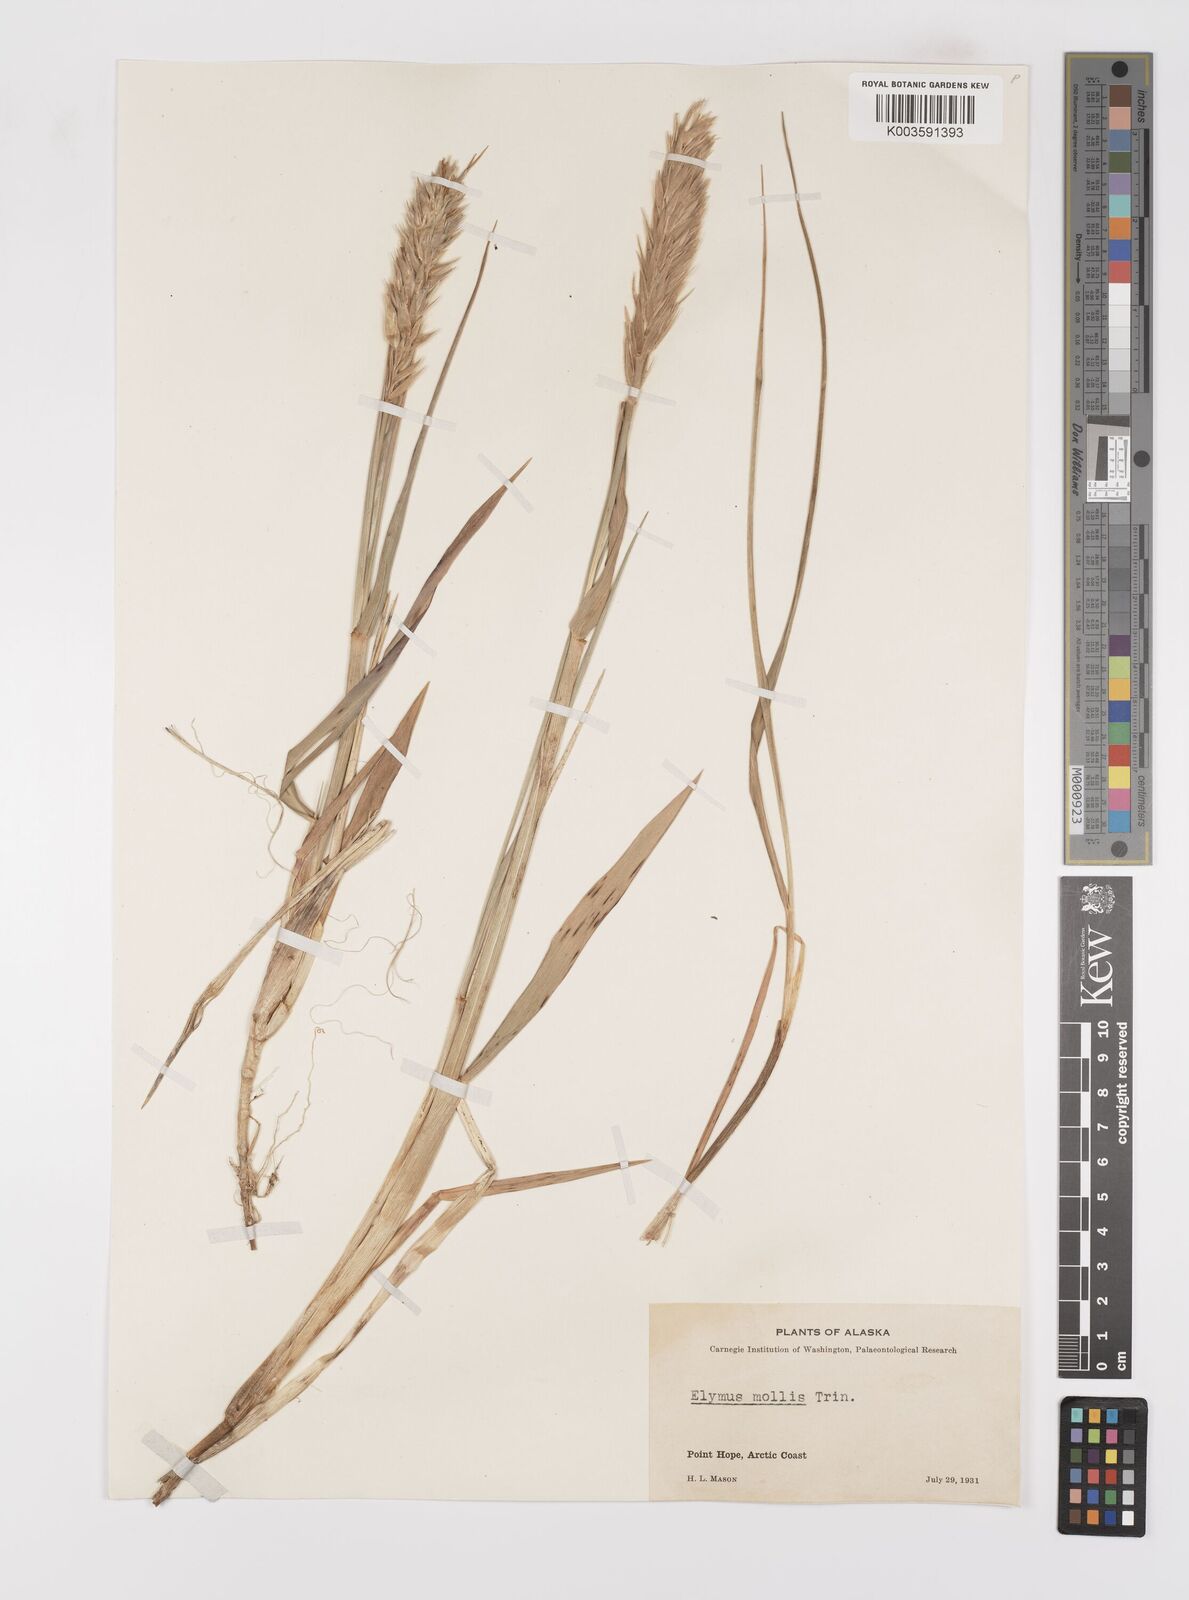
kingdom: Plantae
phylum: Tracheophyta
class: Liliopsida
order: Poales
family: Poaceae
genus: Leymus
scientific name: Leymus mollis
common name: American dune grass
